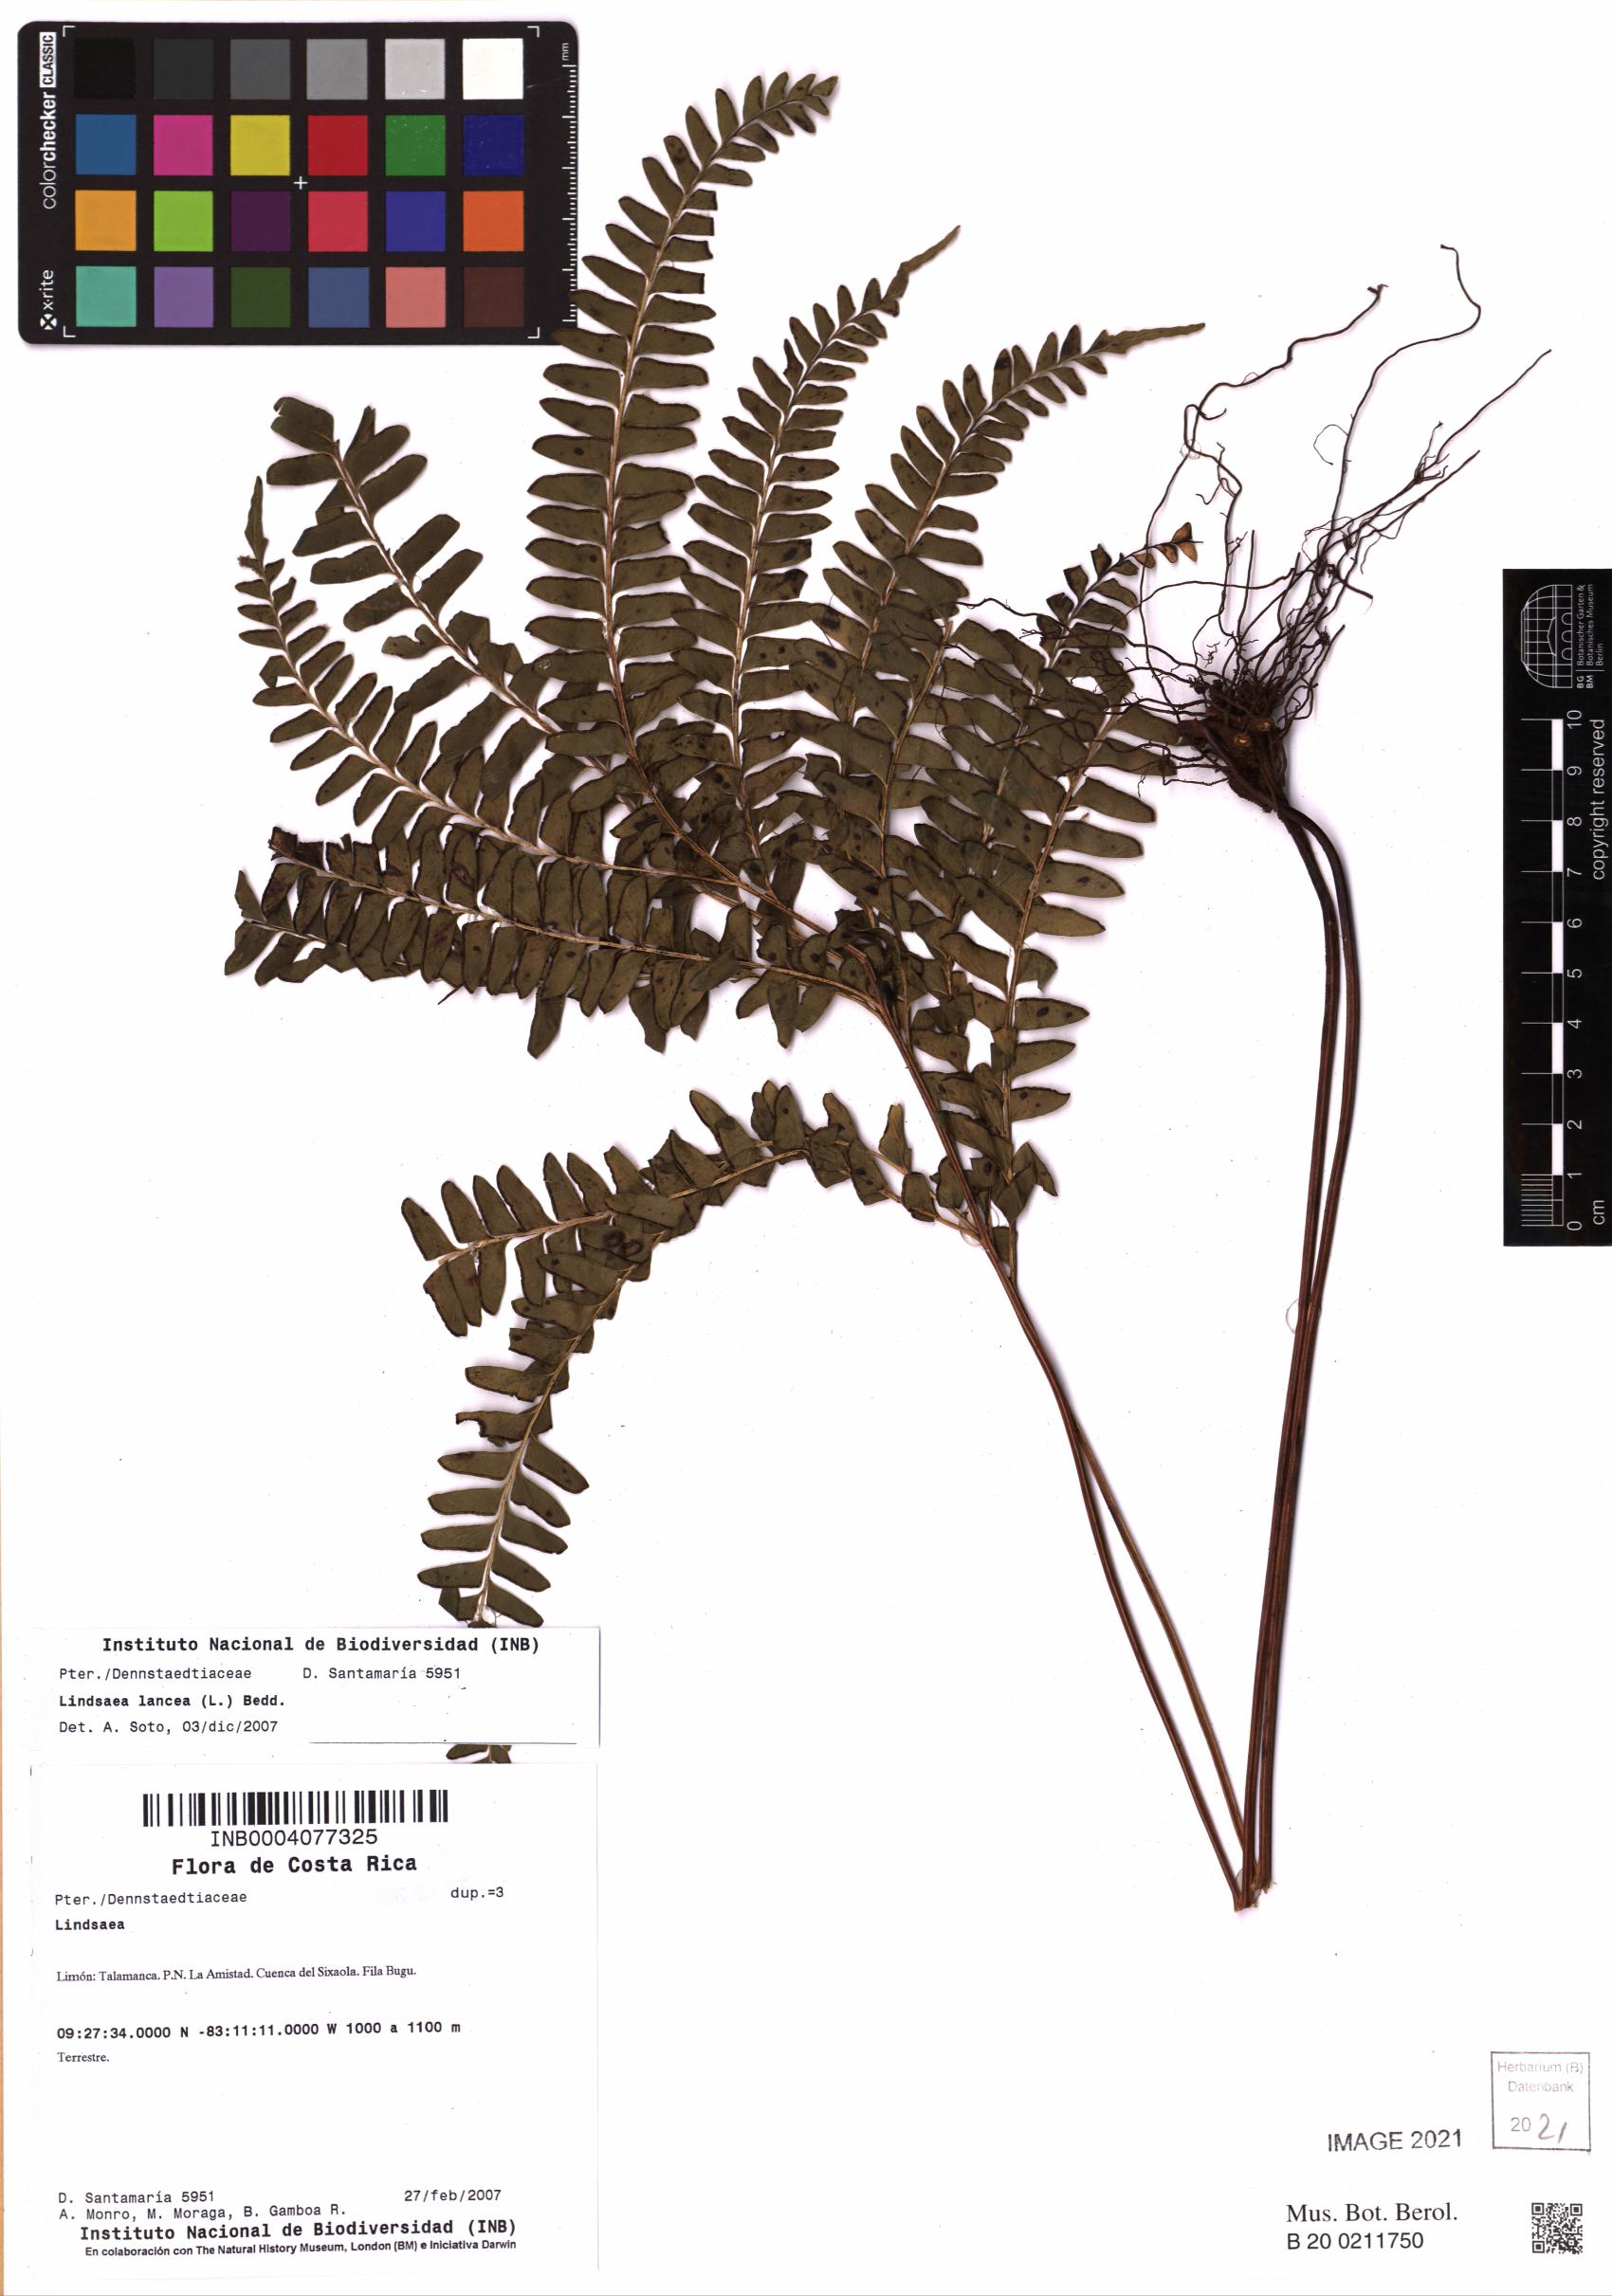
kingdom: Plantae
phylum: Tracheophyta
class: Polypodiopsida
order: Polypodiales
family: Lindsaeaceae
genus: Lindsaea
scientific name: Lindsaea lancea
